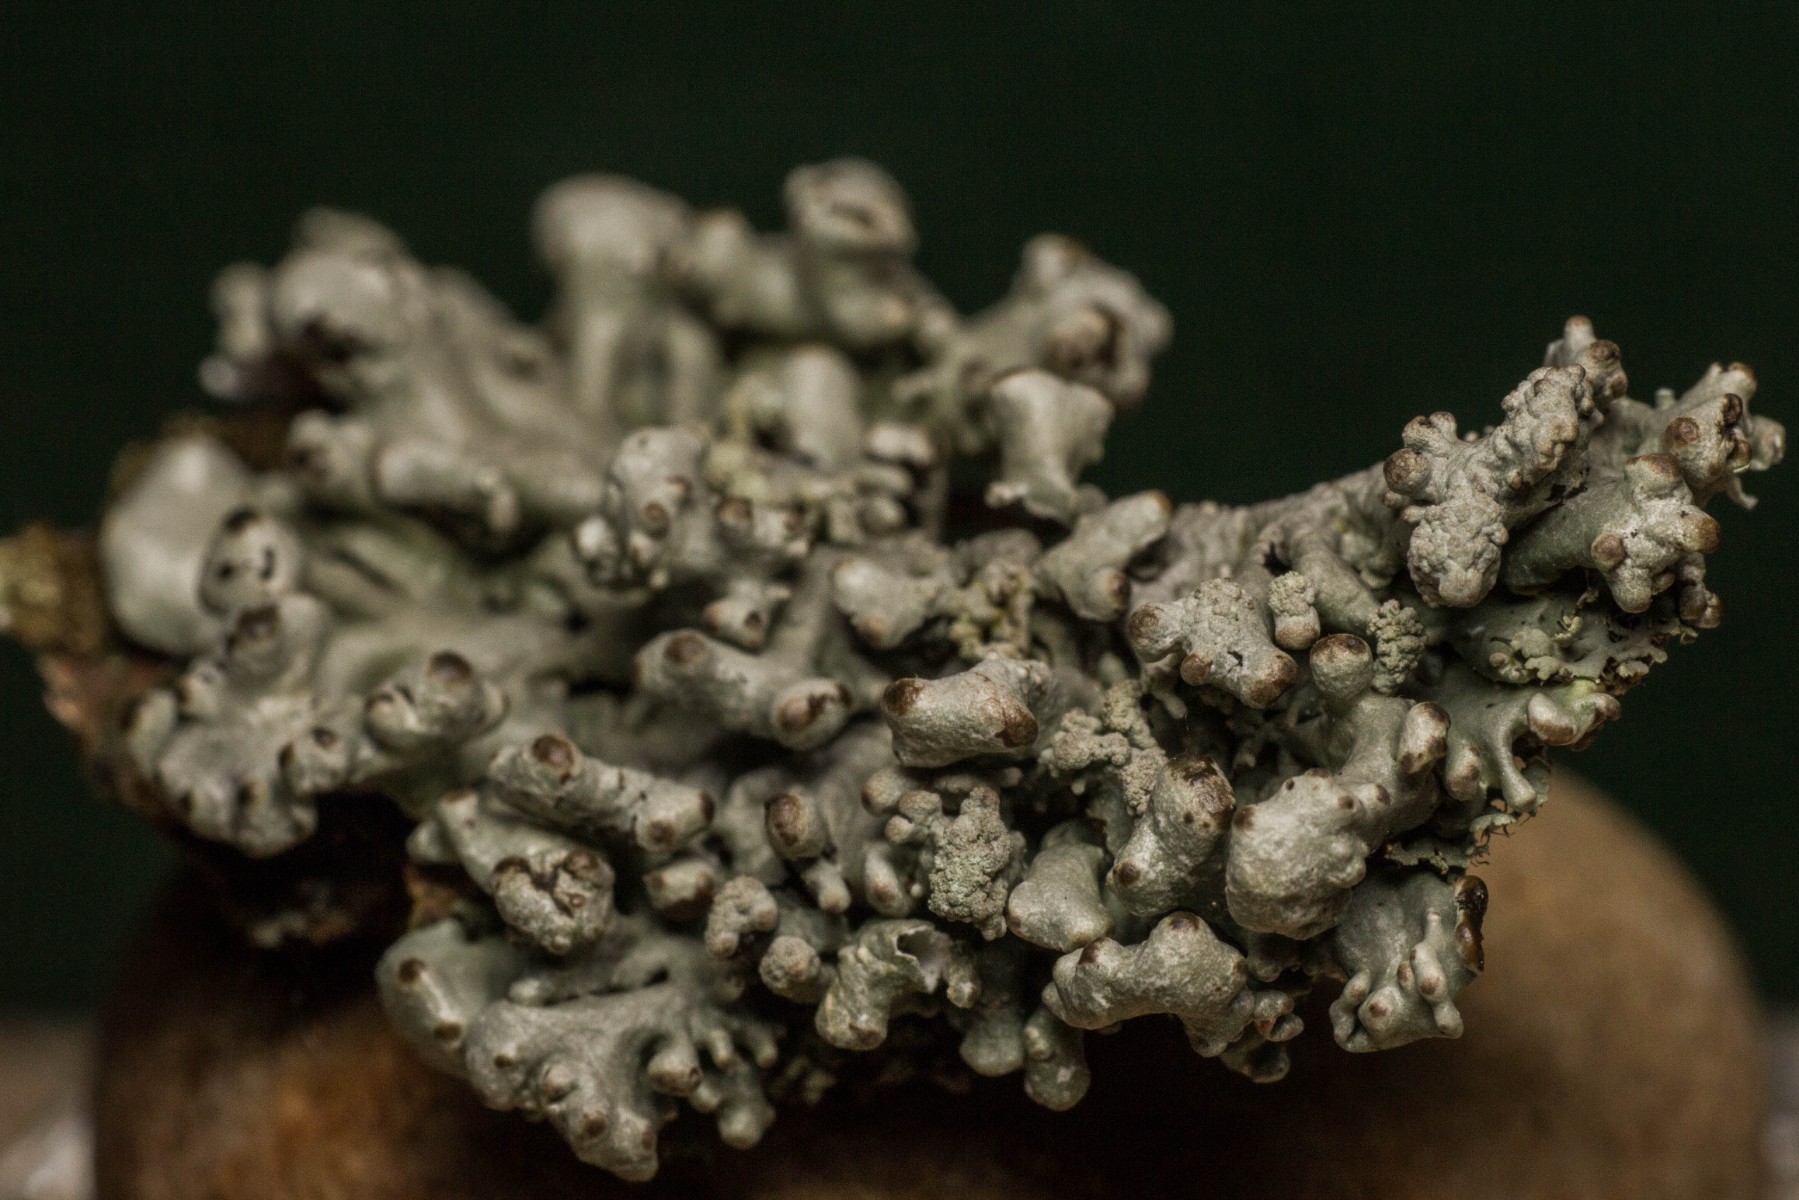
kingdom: Fungi
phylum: Ascomycota
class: Lecanoromycetes
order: Lecanorales
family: Parmeliaceae
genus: Hypogymnia
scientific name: Hypogymnia tubulosa
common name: finger-kvistlav
